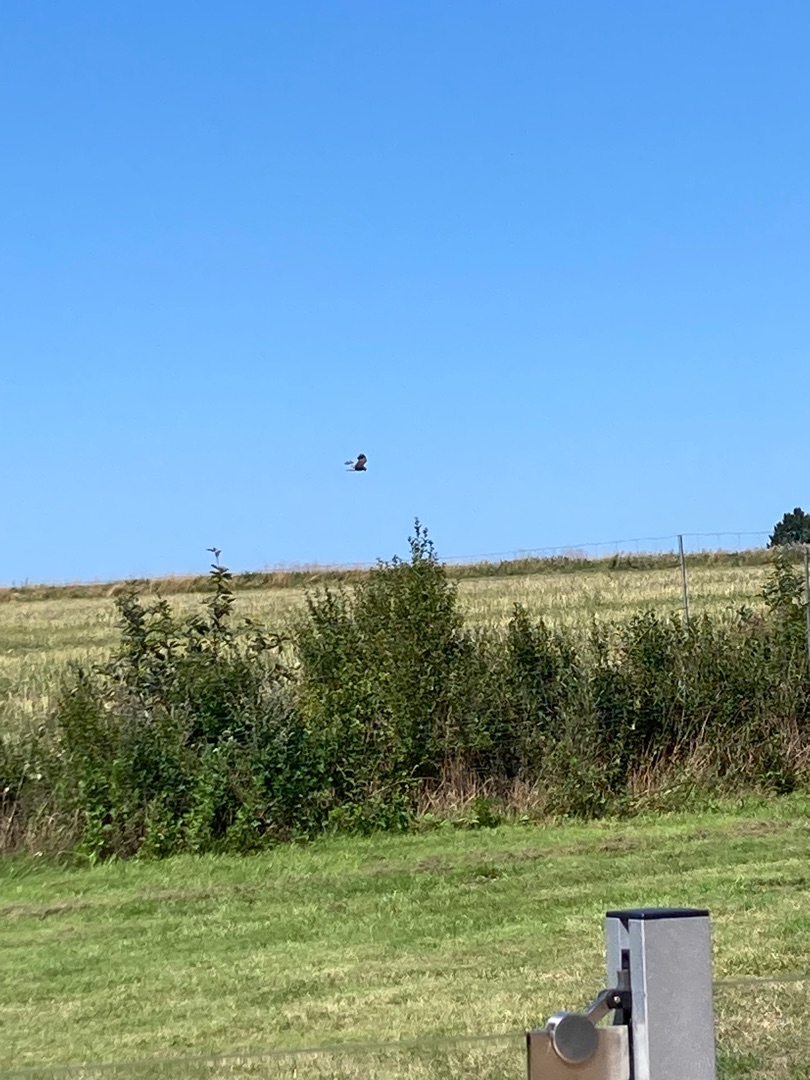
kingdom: Animalia
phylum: Chordata
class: Aves
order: Accipitriformes
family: Accipitridae
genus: Circus
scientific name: Circus aeruginosus
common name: Rørhøg
